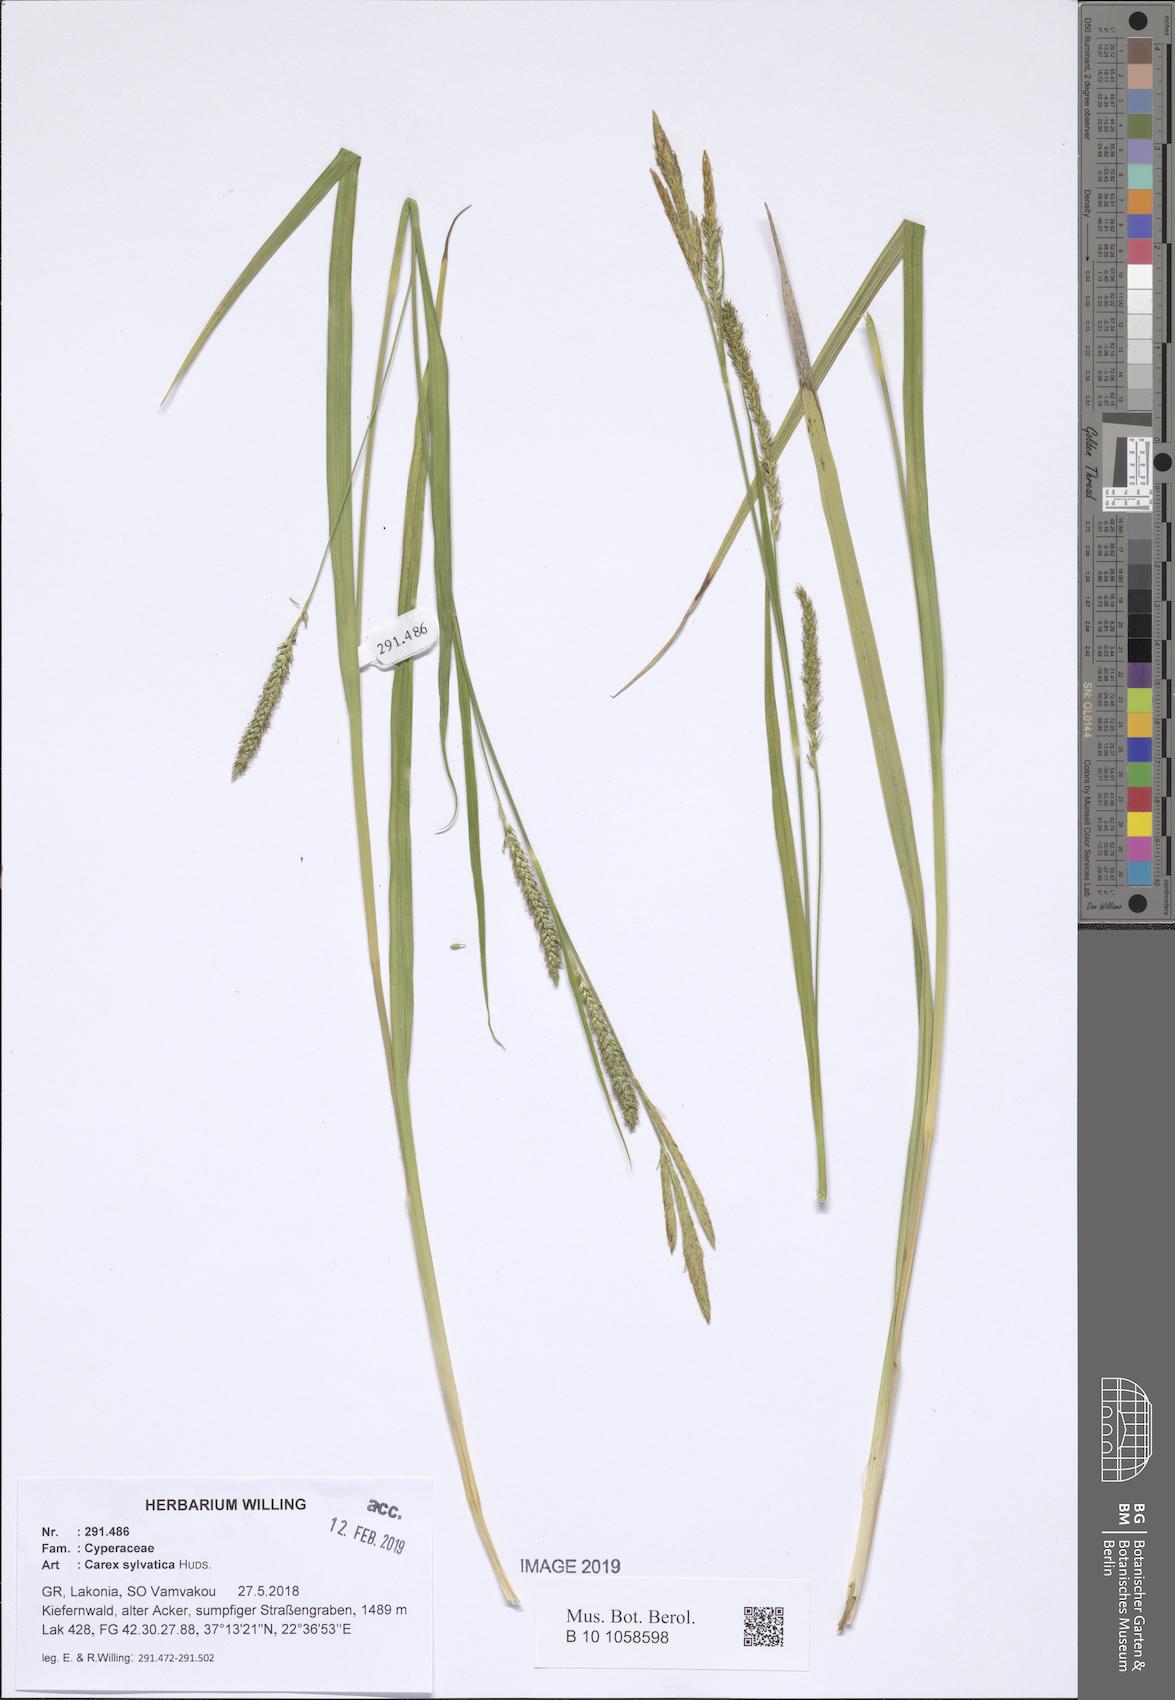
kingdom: Plantae
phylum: Tracheophyta
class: Liliopsida
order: Poales
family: Cyperaceae
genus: Carex
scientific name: Carex sylvatica
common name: Wood-sedge
